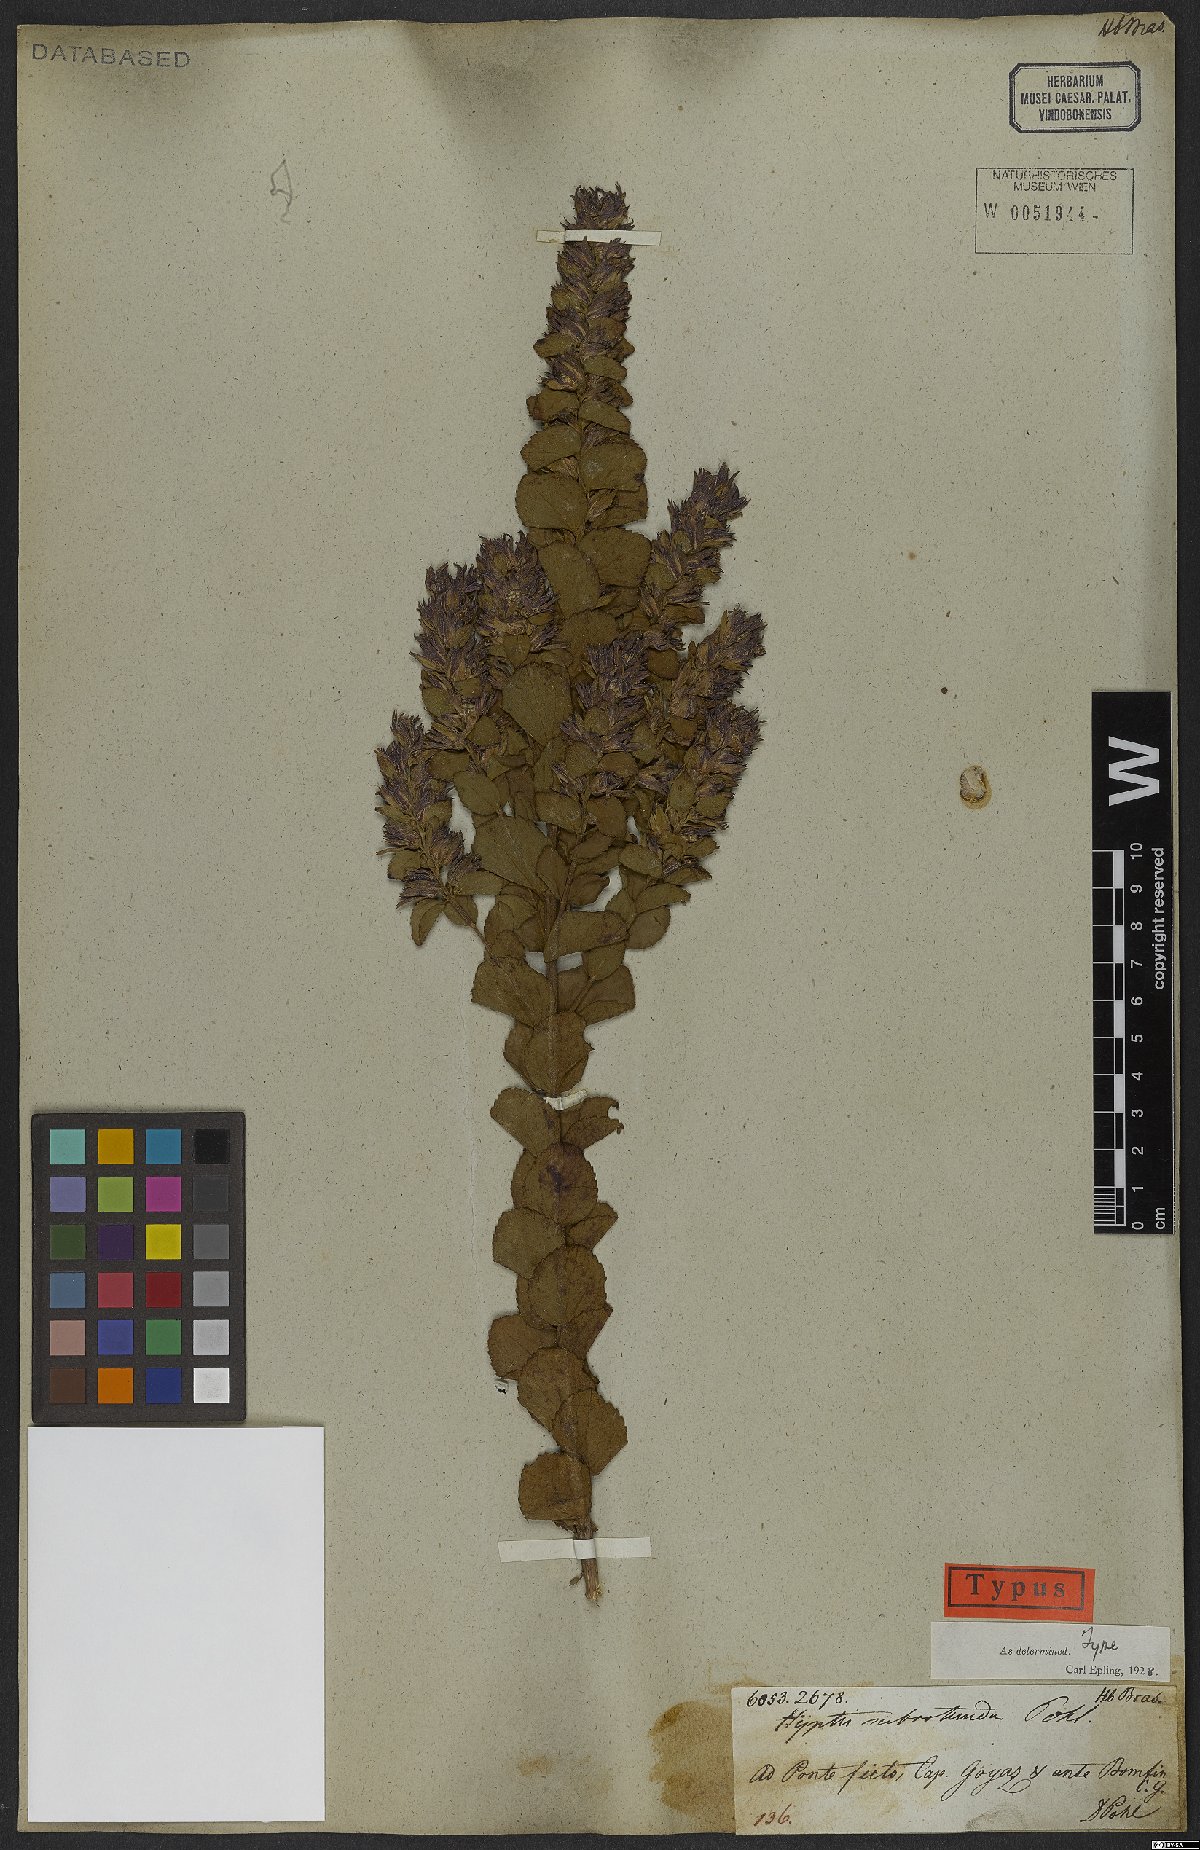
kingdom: Plantae
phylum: Tracheophyta
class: Magnoliopsida
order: Lamiales
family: Lamiaceae
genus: Cantinoa
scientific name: Cantinoa subrotunda
